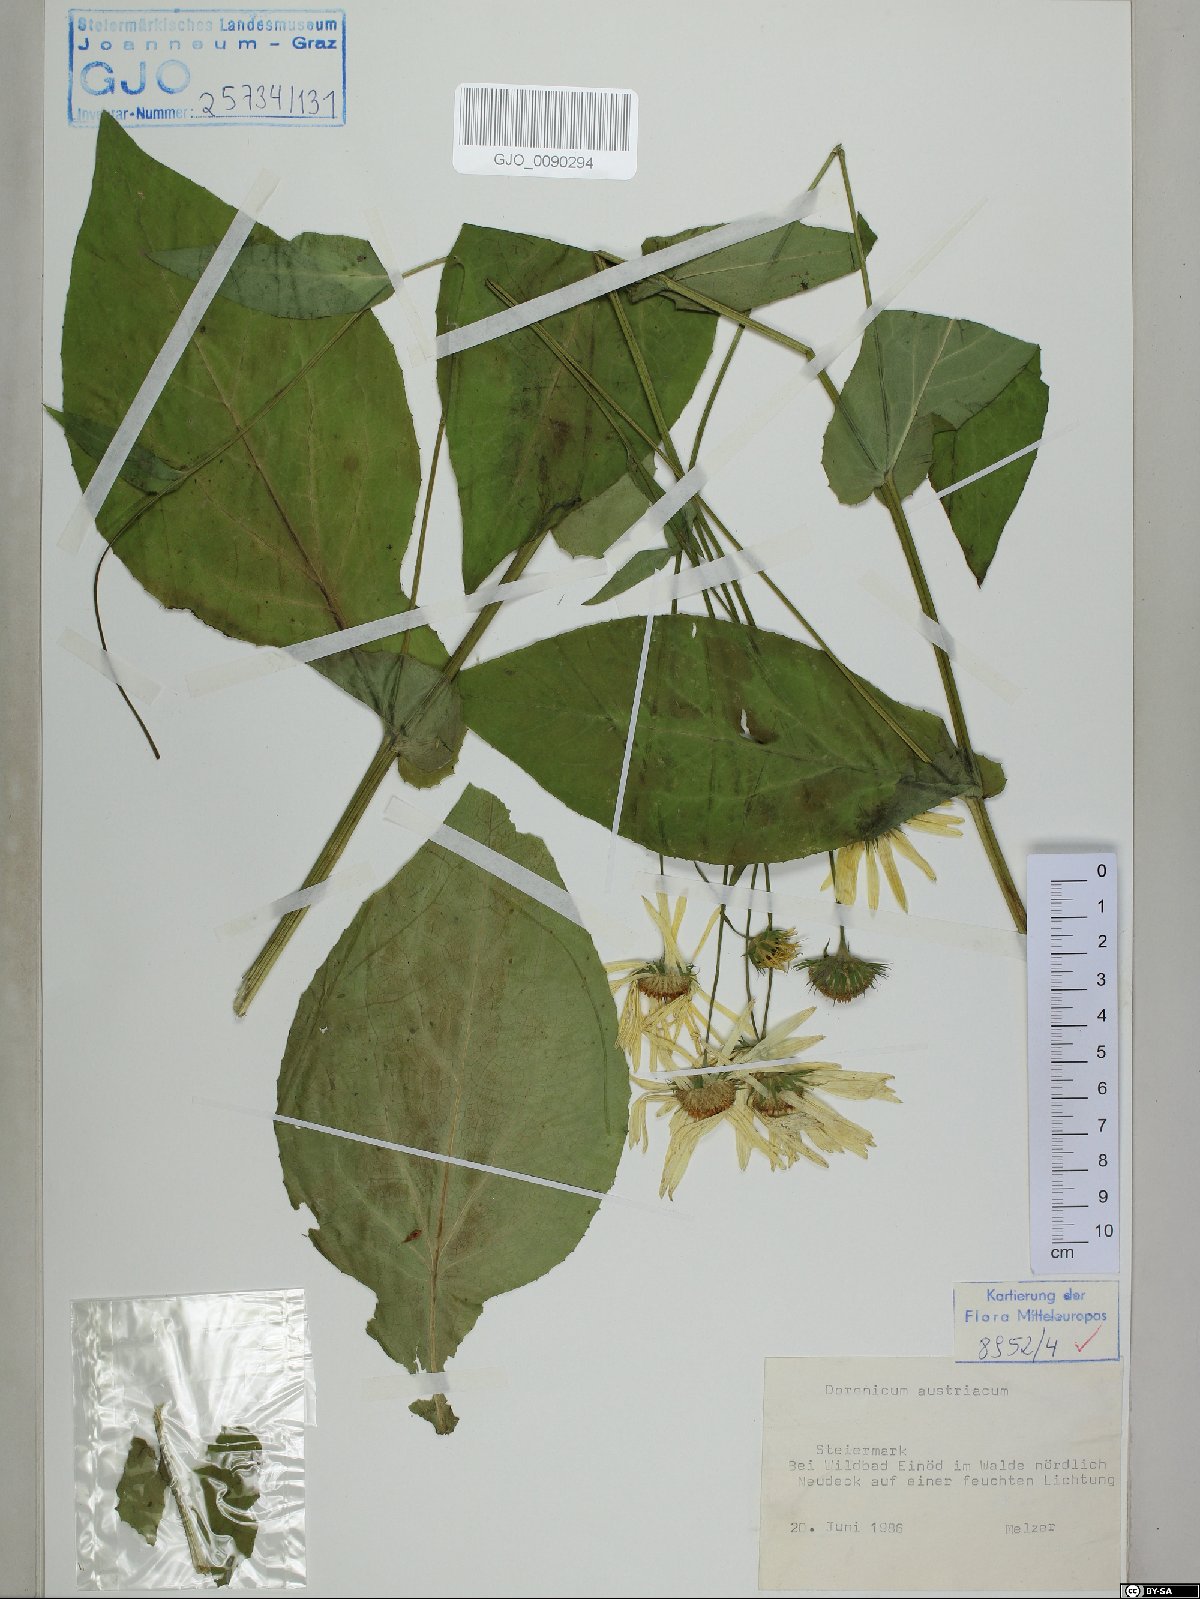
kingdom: Plantae
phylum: Tracheophyta
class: Magnoliopsida
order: Asterales
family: Asteraceae
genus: Doronicum
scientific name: Doronicum austriacum
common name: Austrian leopard's-bane
